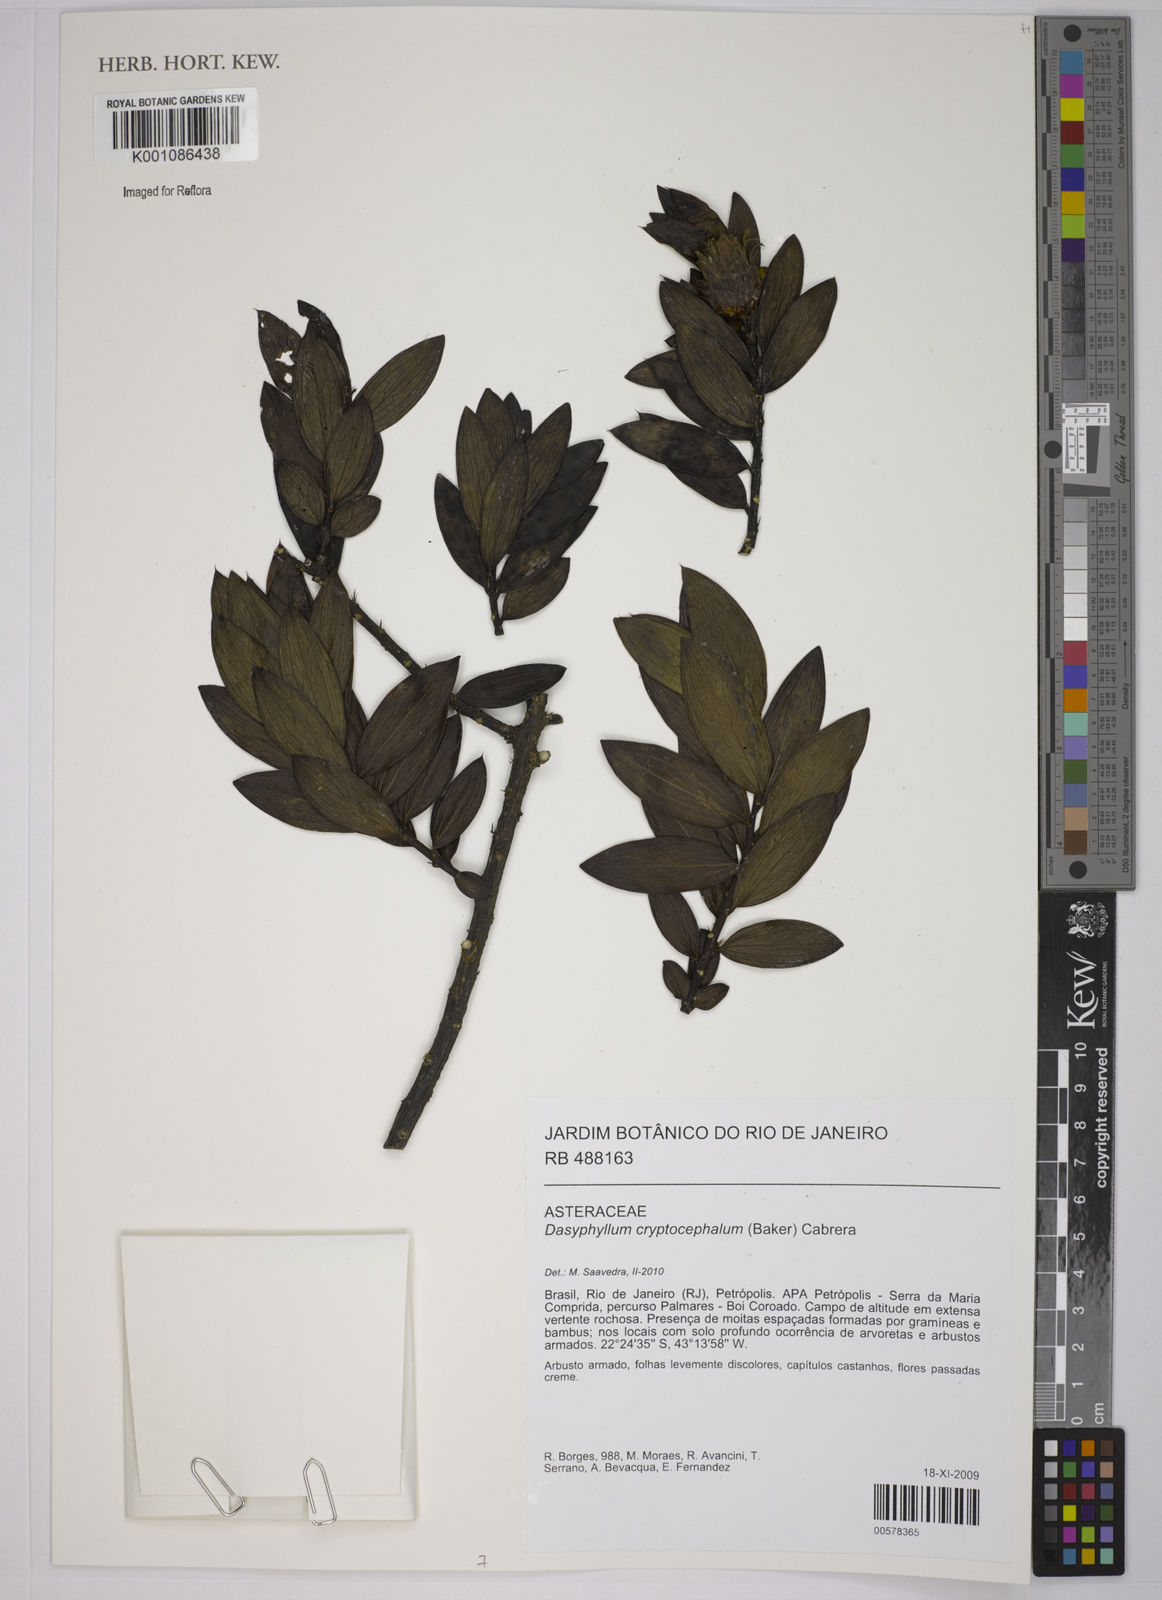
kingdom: Plantae
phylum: Tracheophyta
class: Magnoliopsida
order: Asterales
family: Asteraceae
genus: Dasyphyllum
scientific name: Dasyphyllum cryptocephalum
